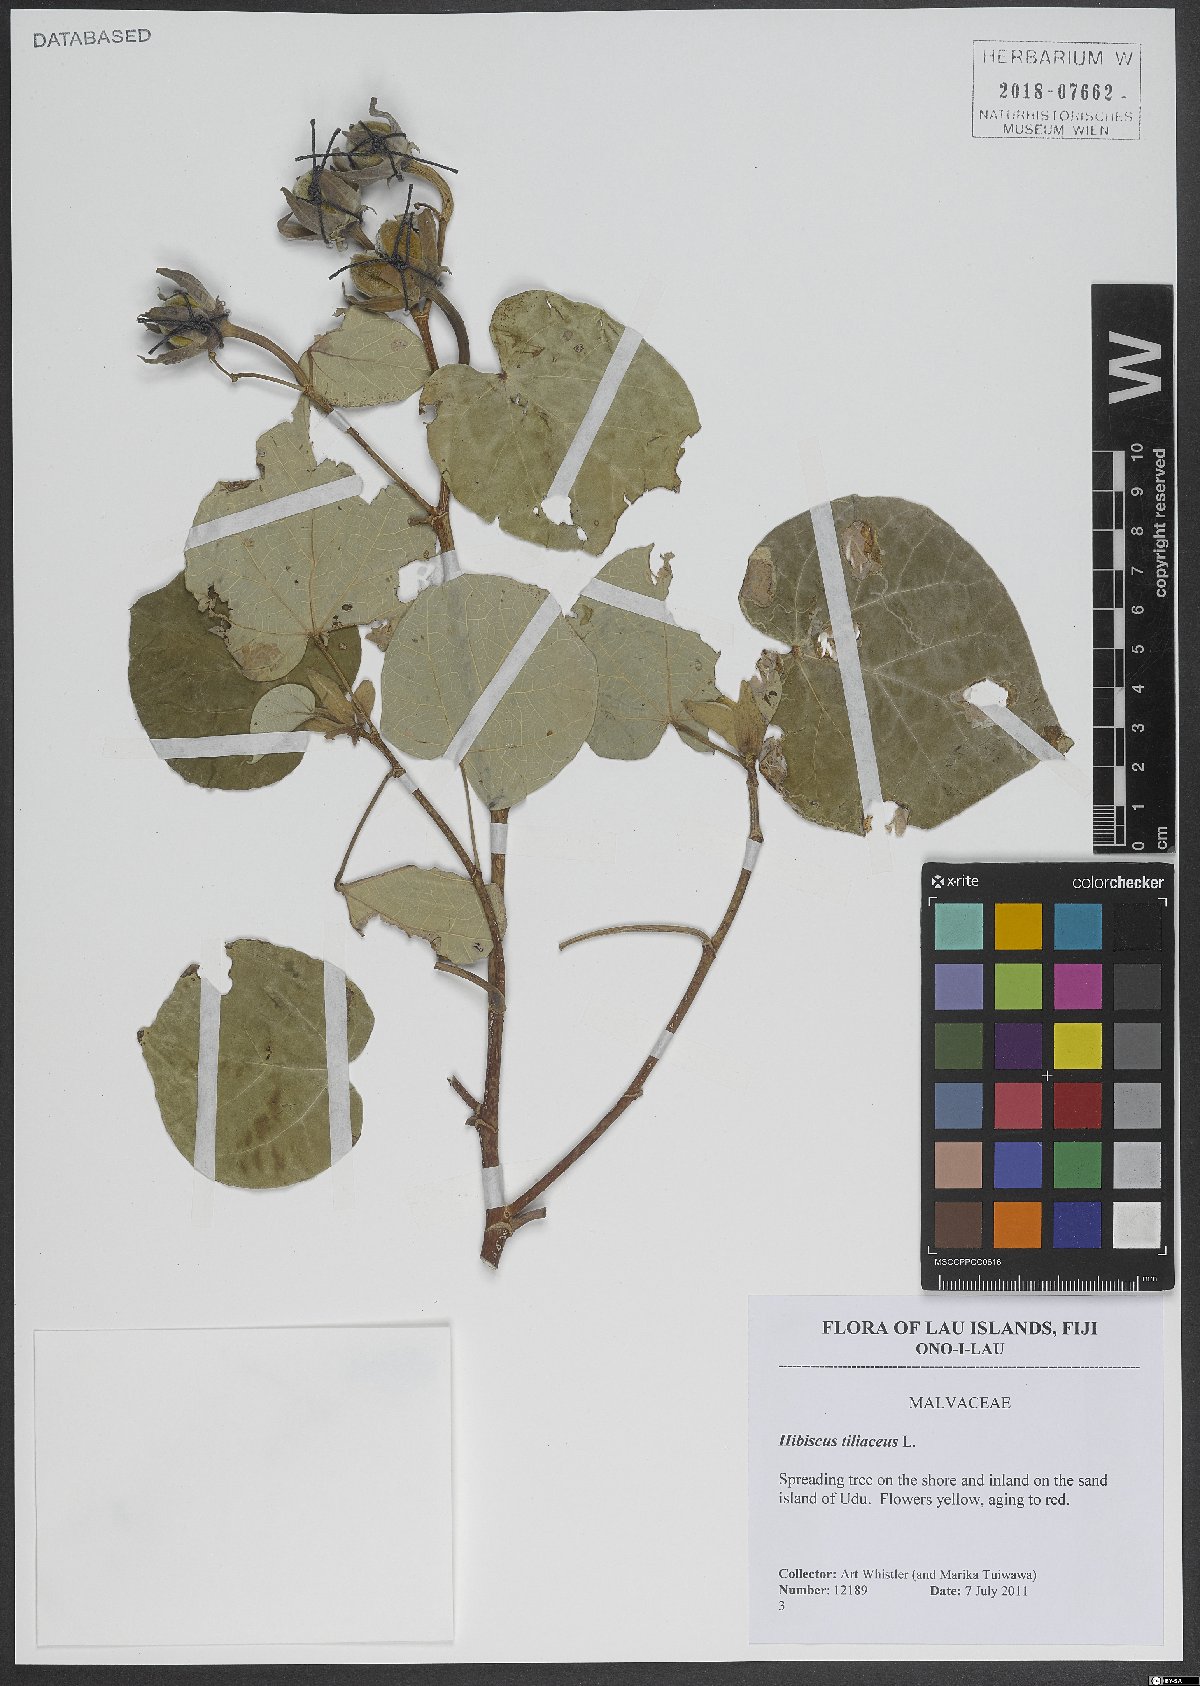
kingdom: Plantae
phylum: Tracheophyta
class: Magnoliopsida
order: Malvales
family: Malvaceae
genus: Talipariti
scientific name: Talipariti tiliaceum
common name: Sea hibiscus
